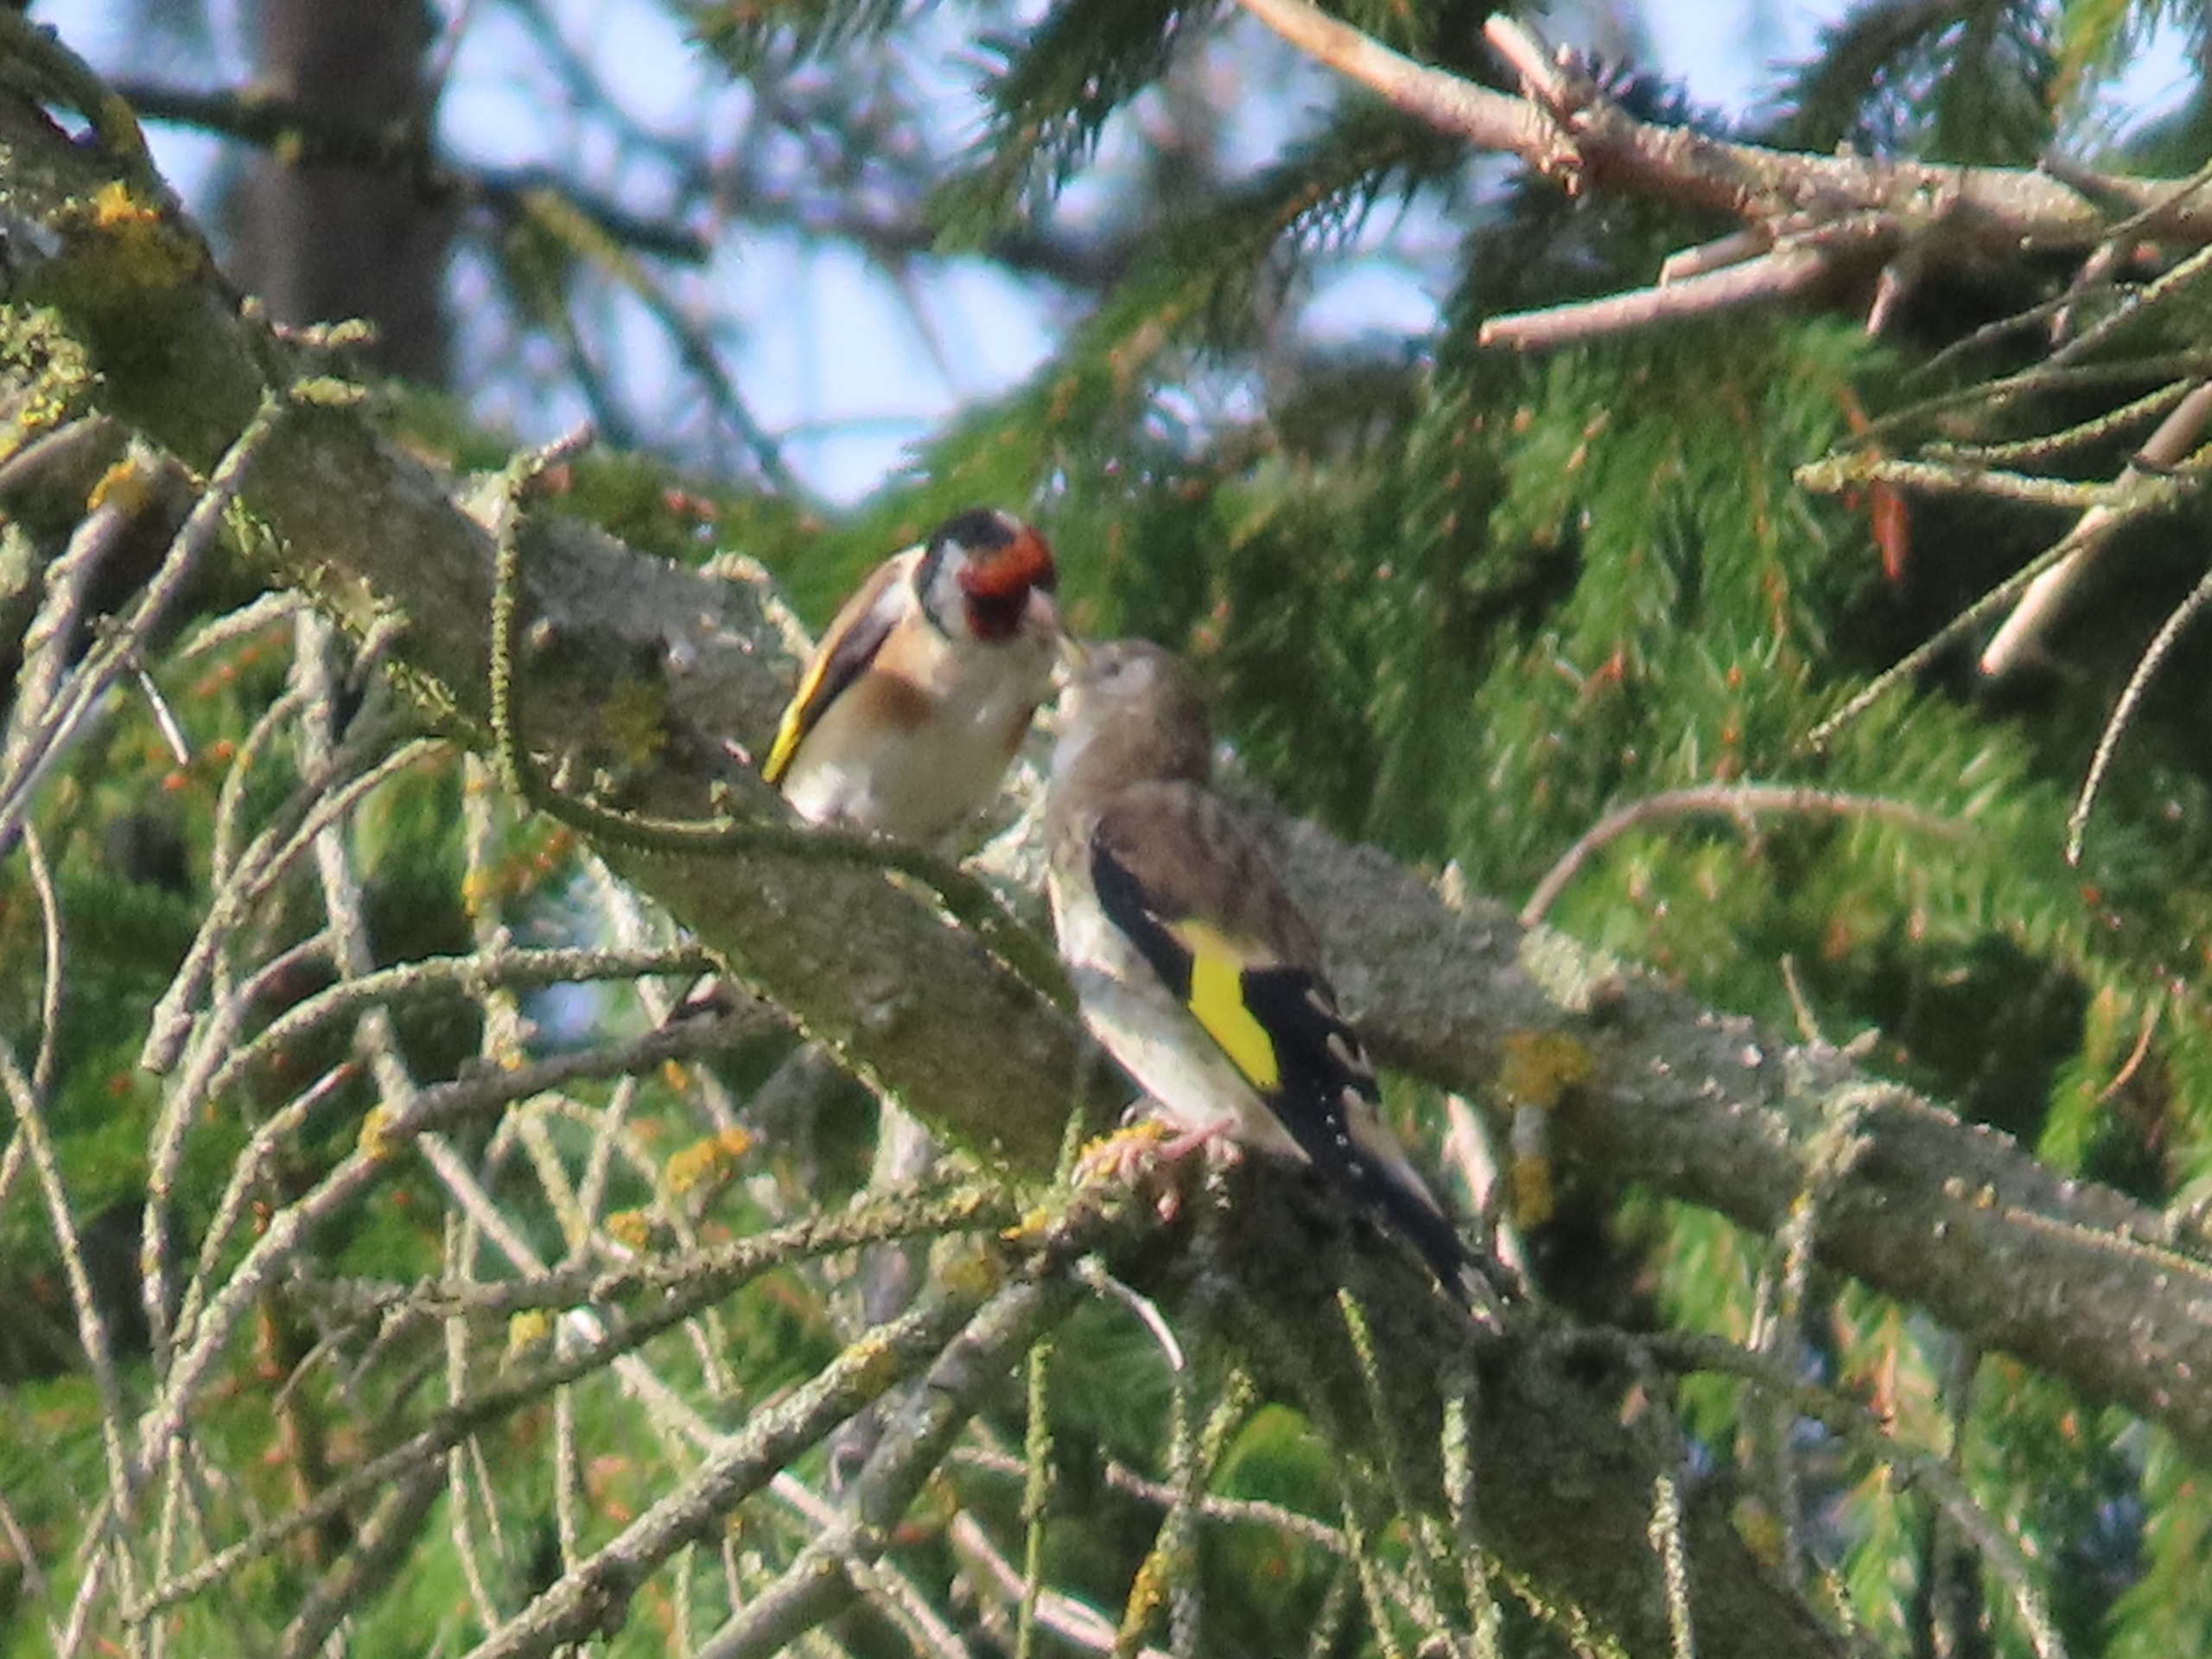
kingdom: Animalia
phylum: Chordata
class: Aves
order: Passeriformes
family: Fringillidae
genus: Carduelis
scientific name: Carduelis carduelis
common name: Stillits
